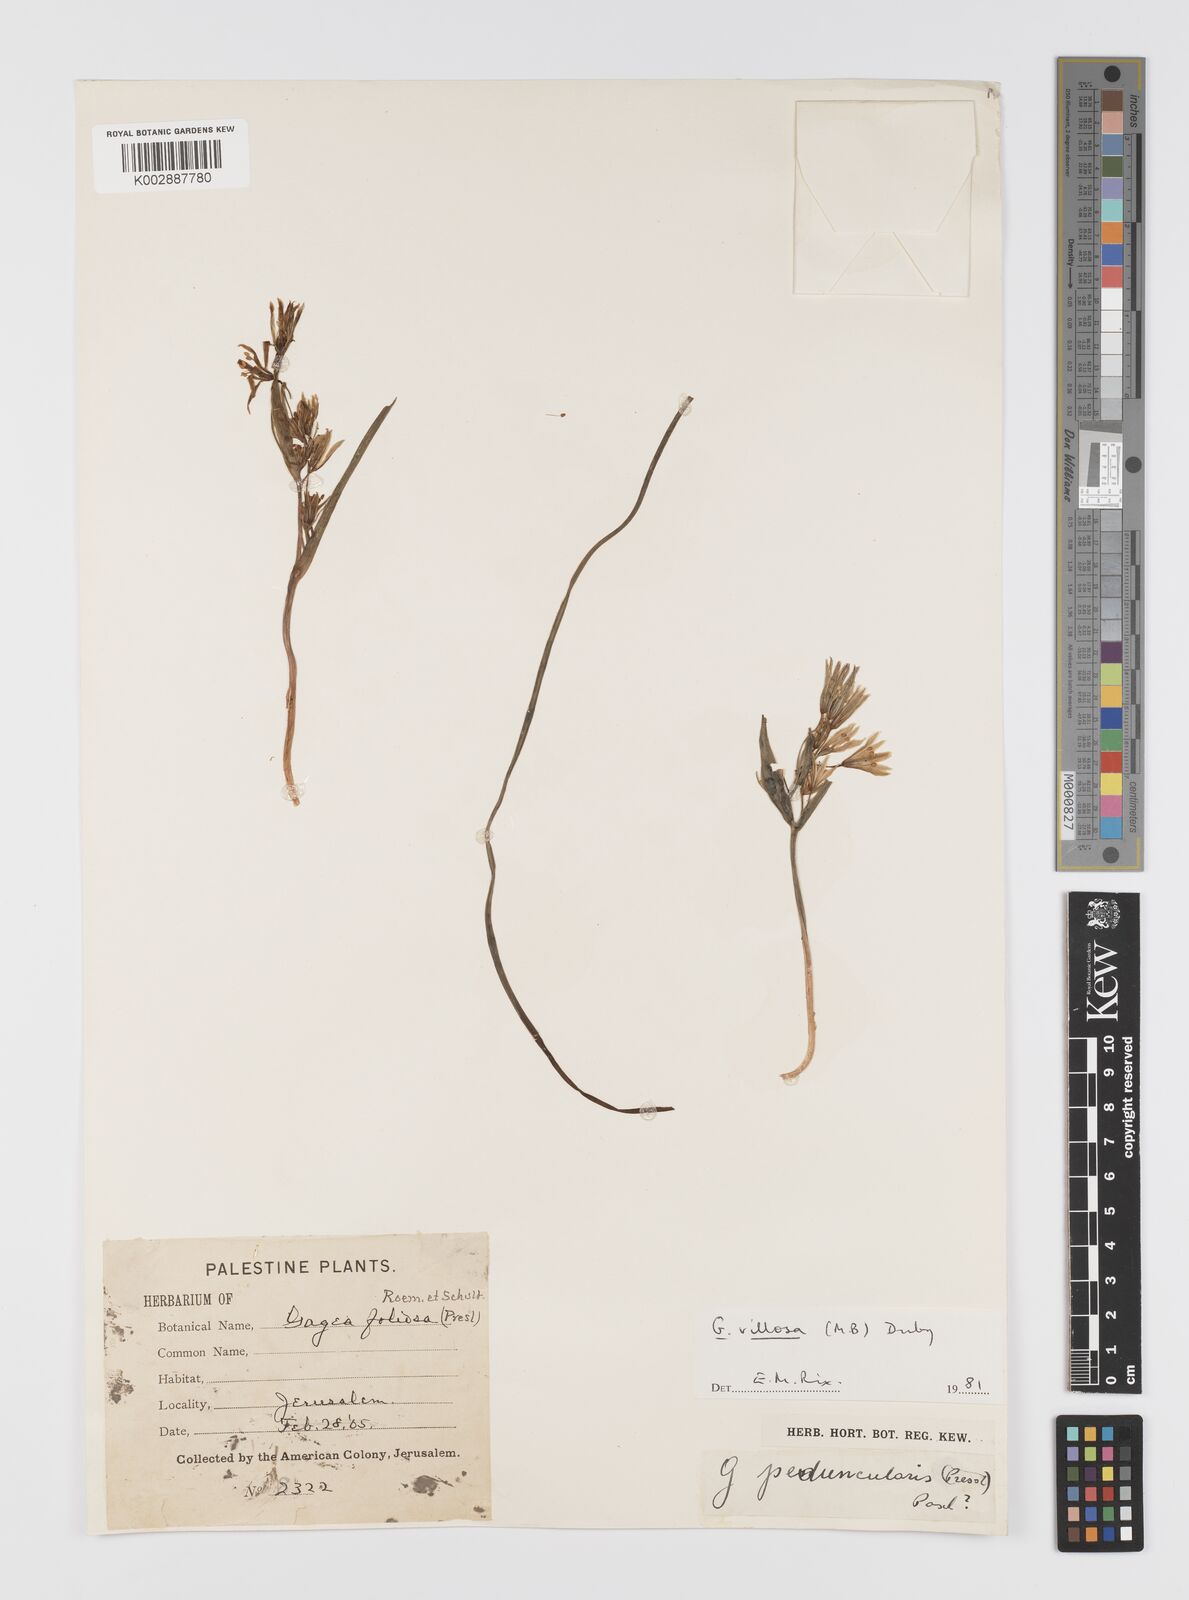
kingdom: Plantae
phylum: Tracheophyta
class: Liliopsida
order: Liliales
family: Liliaceae
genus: Gagea
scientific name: Gagea minima
